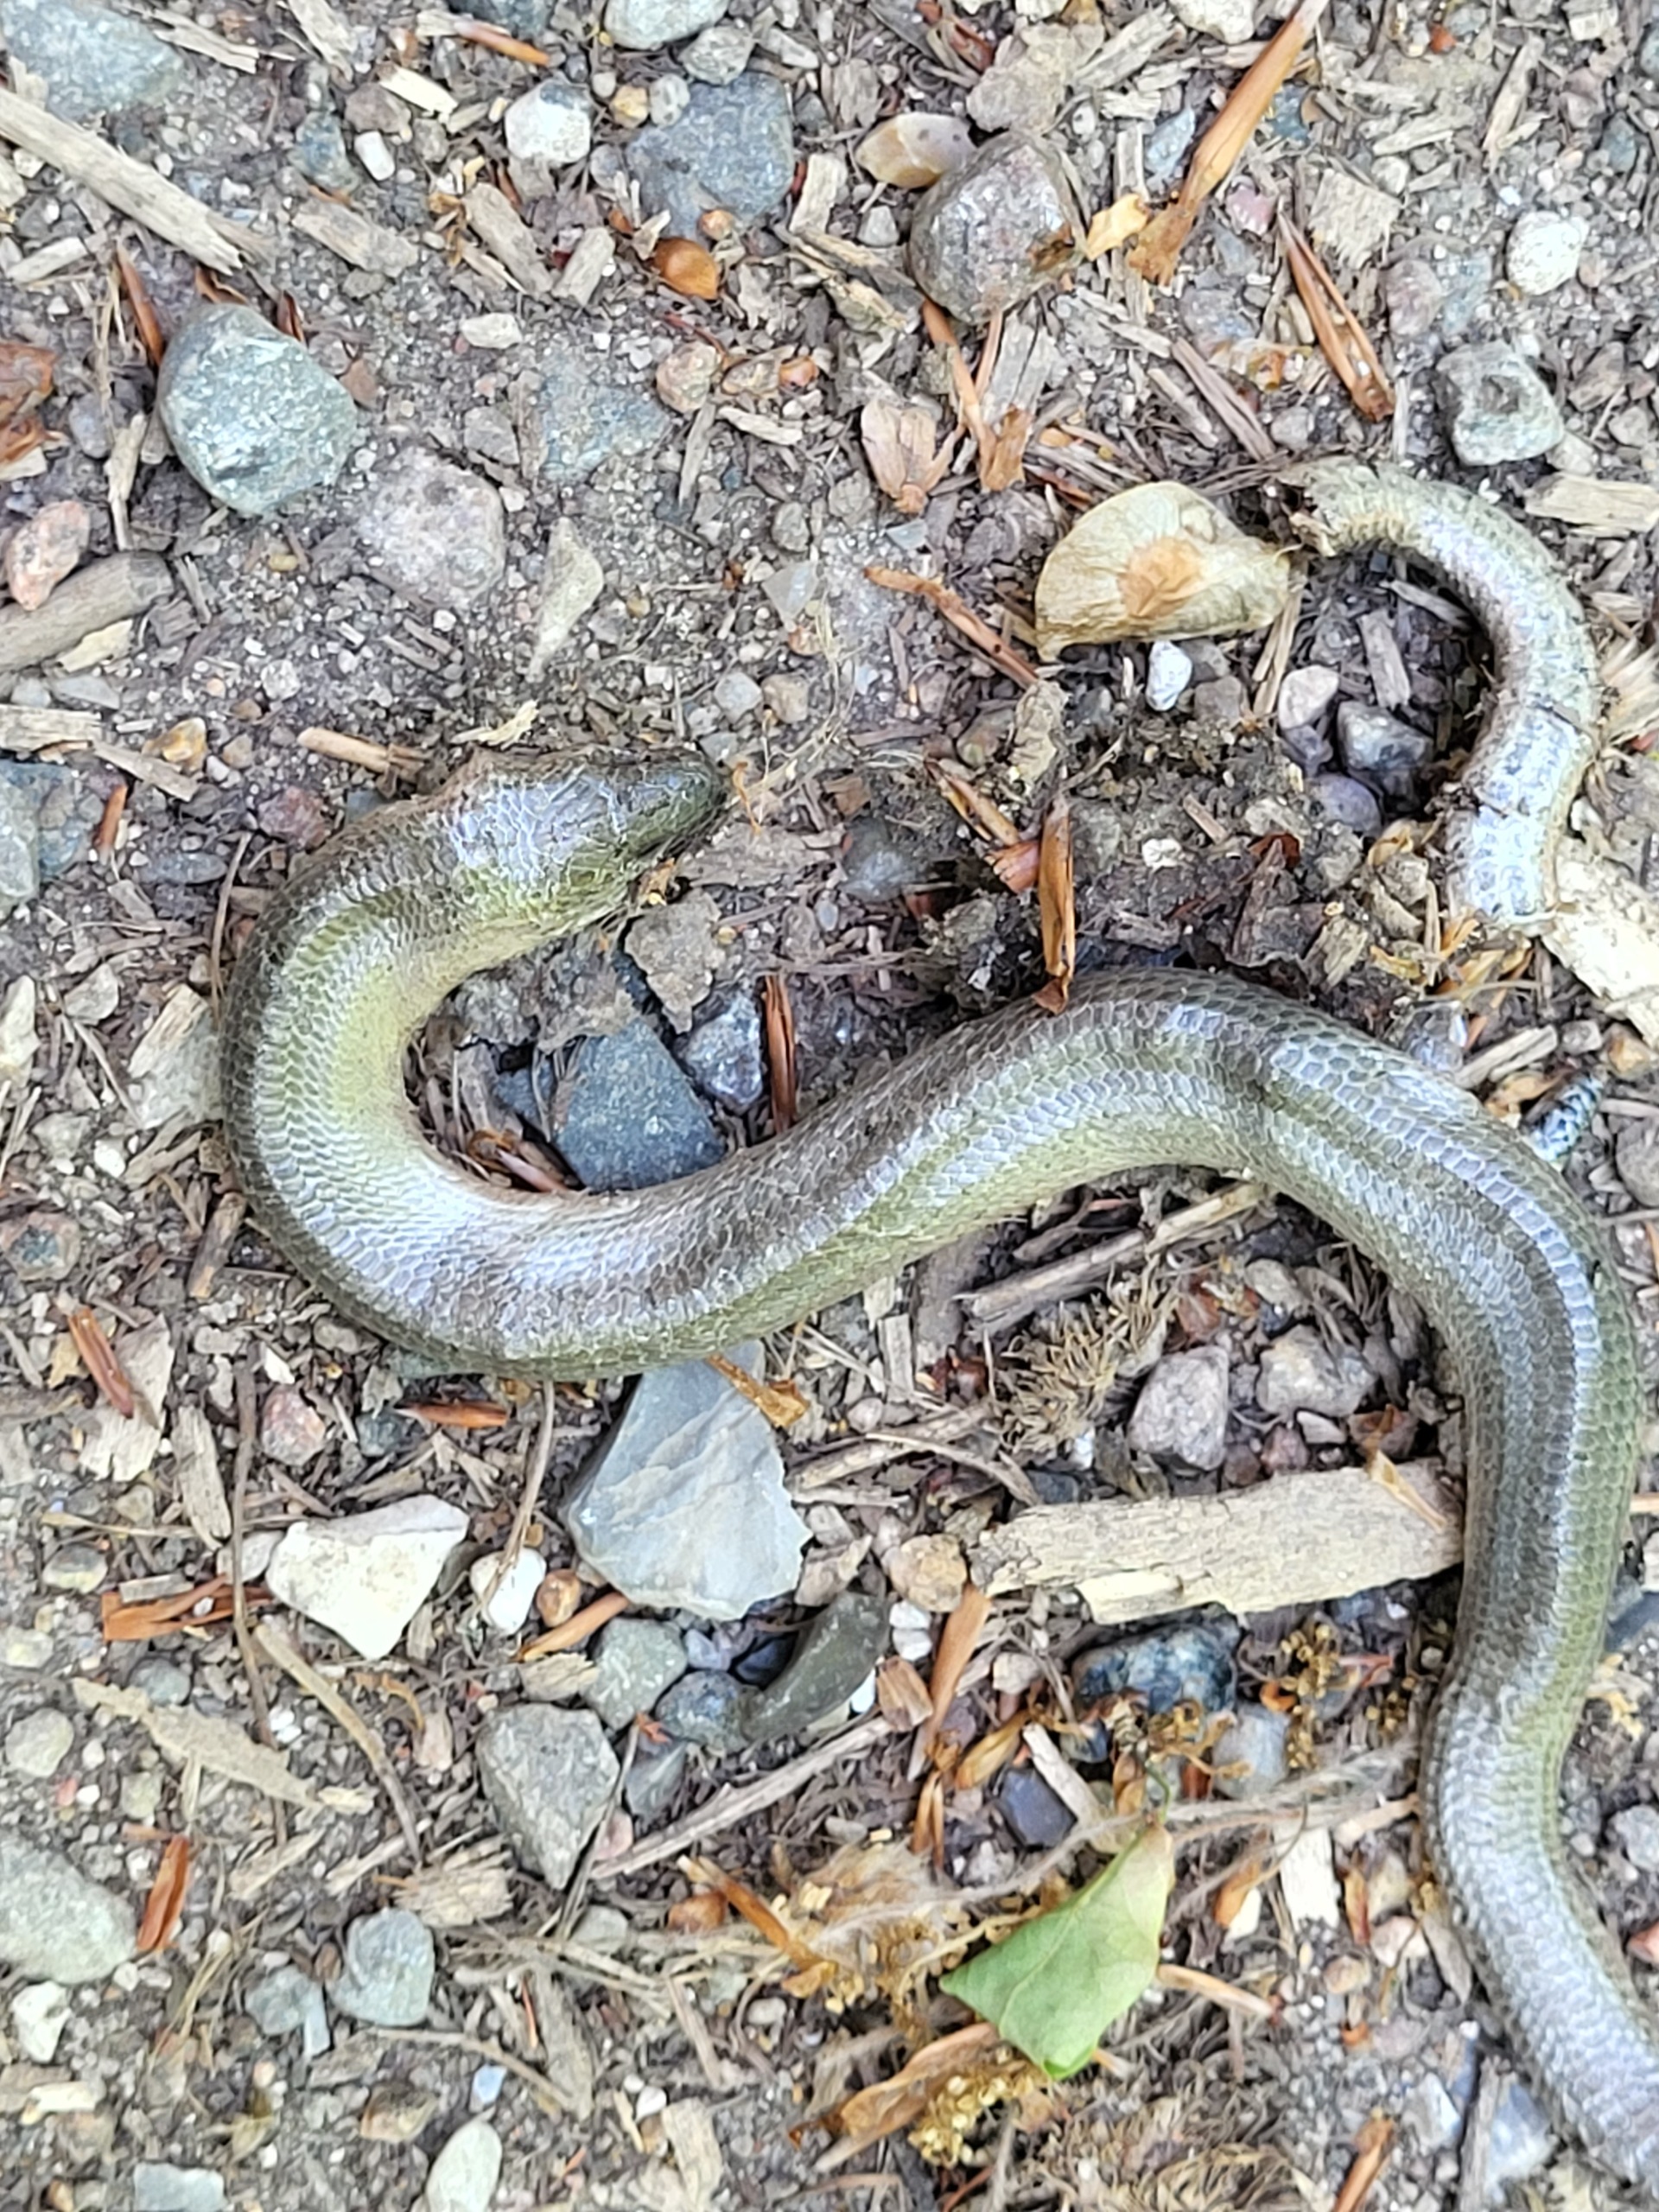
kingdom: Animalia
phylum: Chordata
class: Squamata
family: Anguidae
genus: Anguis
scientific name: Anguis fragilis
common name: Stålorm
